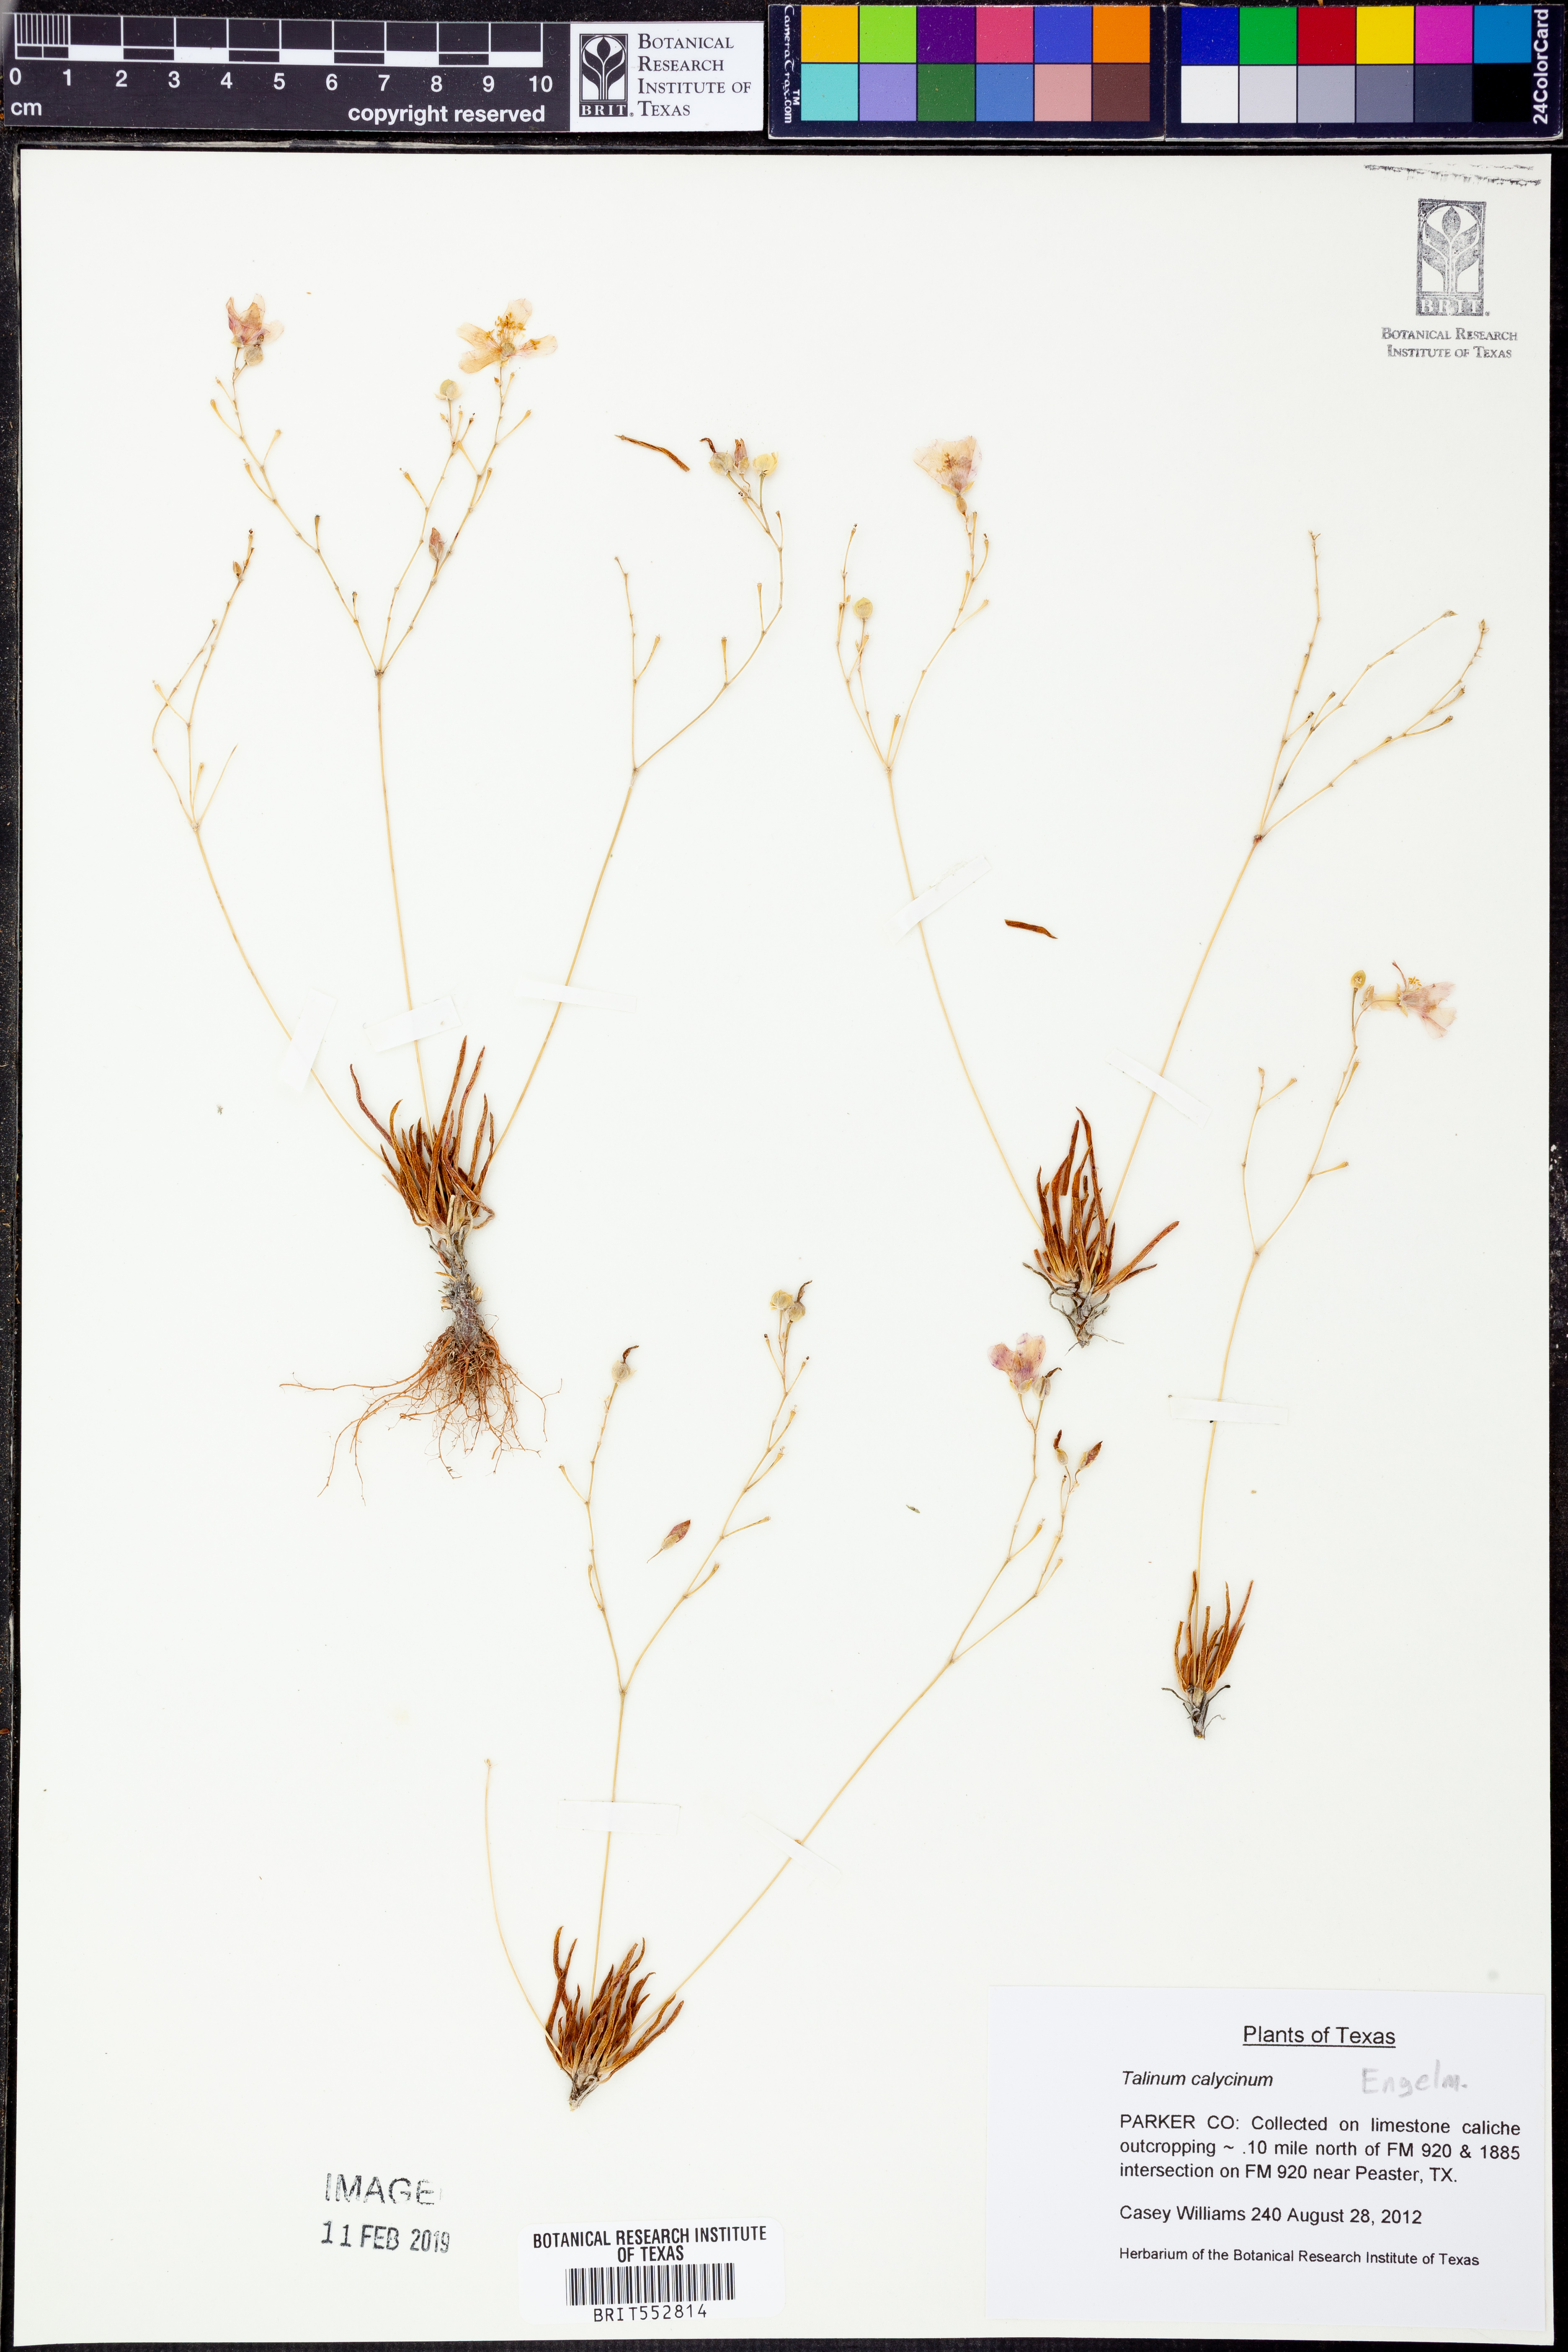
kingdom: Plantae
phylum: Tracheophyta
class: Magnoliopsida
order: Caryophyllales
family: Montiaceae
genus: Phemeranthus
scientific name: Phemeranthus calycinus
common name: Largeflower fameflower
